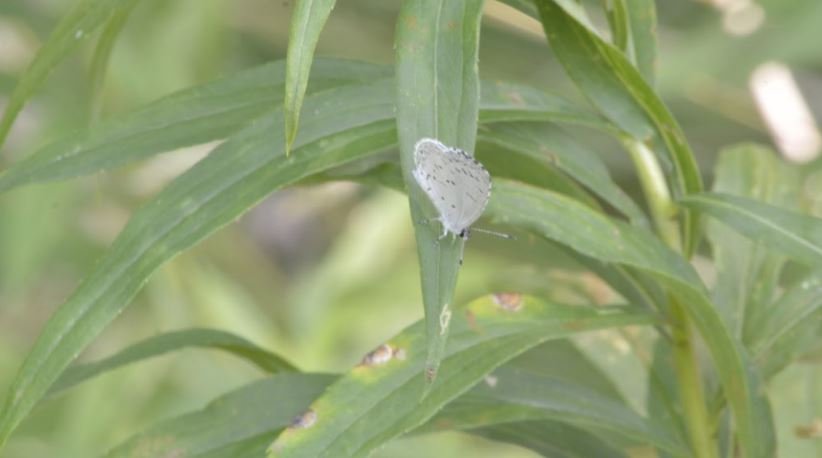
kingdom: Animalia
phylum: Arthropoda
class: Insecta
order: Lepidoptera
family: Lycaenidae
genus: Celastrina
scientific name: Celastrina
